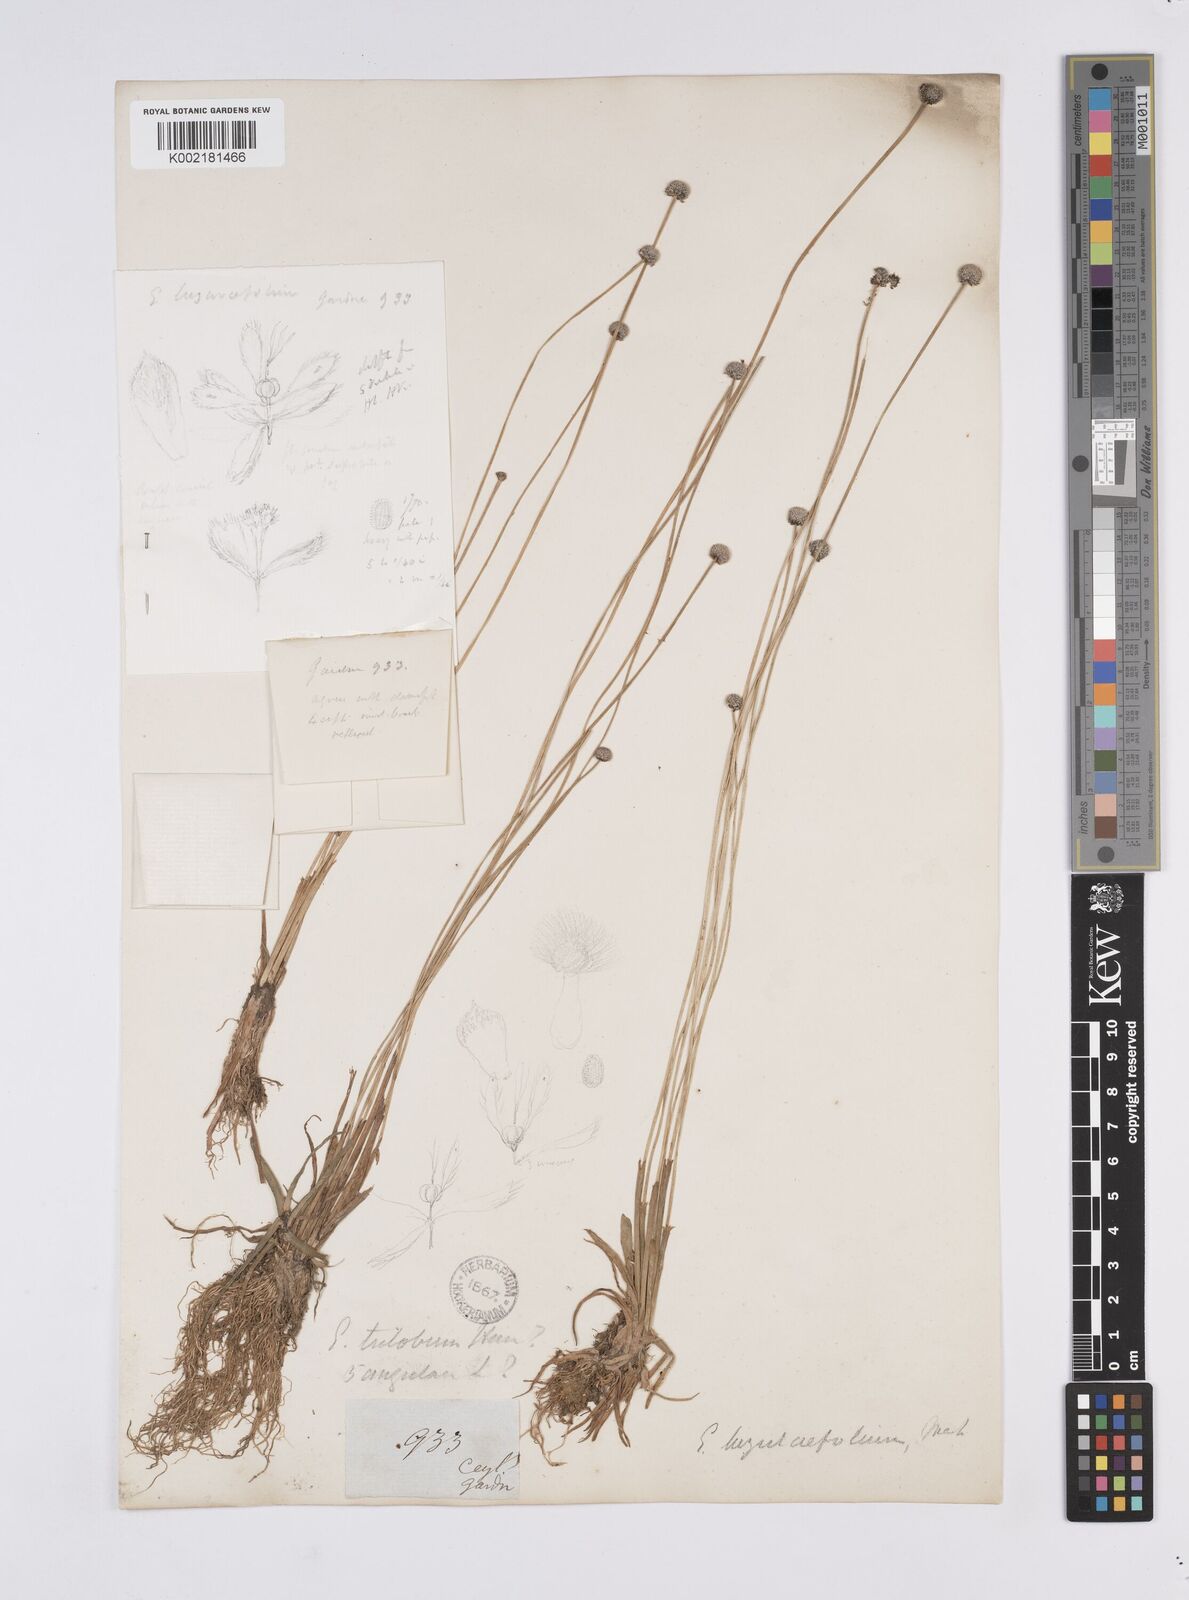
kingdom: Plantae
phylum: Tracheophyta
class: Liliopsida
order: Poales
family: Eriocaulaceae
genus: Eriocaulon
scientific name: Eriocaulon odoratum
